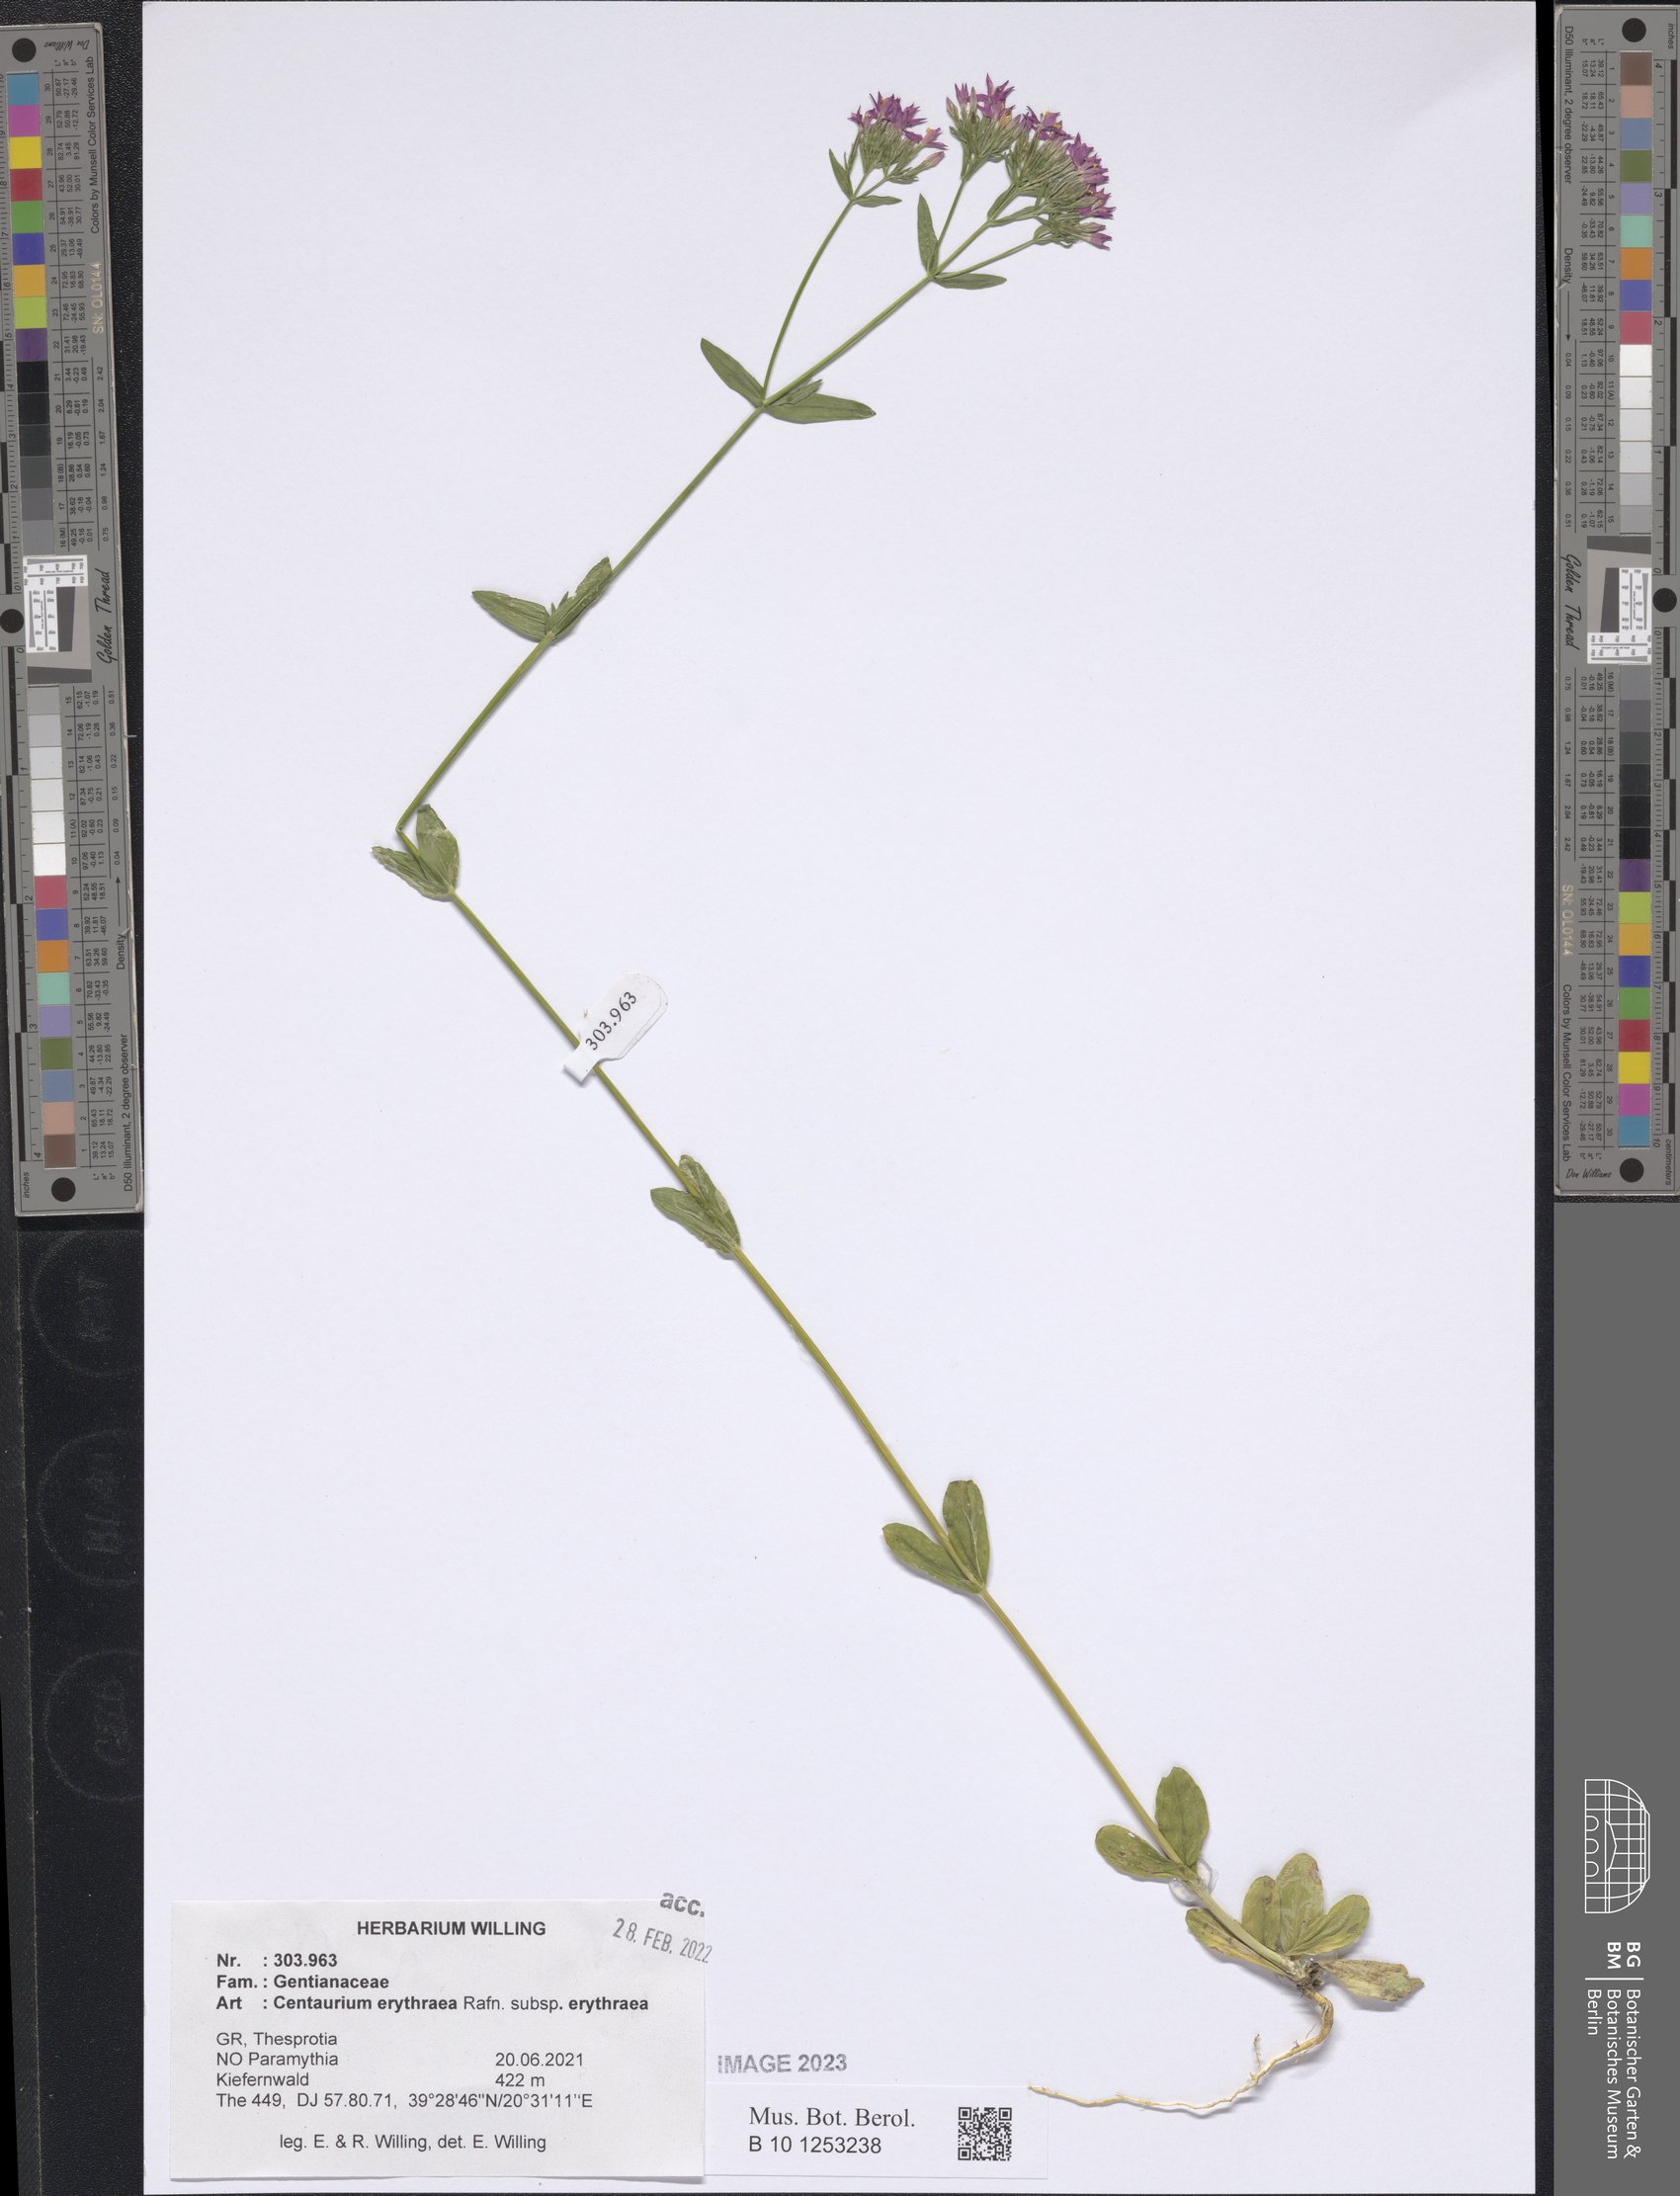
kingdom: Plantae
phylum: Tracheophyta
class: Magnoliopsida
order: Gentianales
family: Gentianaceae
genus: Centaurium
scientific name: Centaurium erythraea
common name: Common centaury
